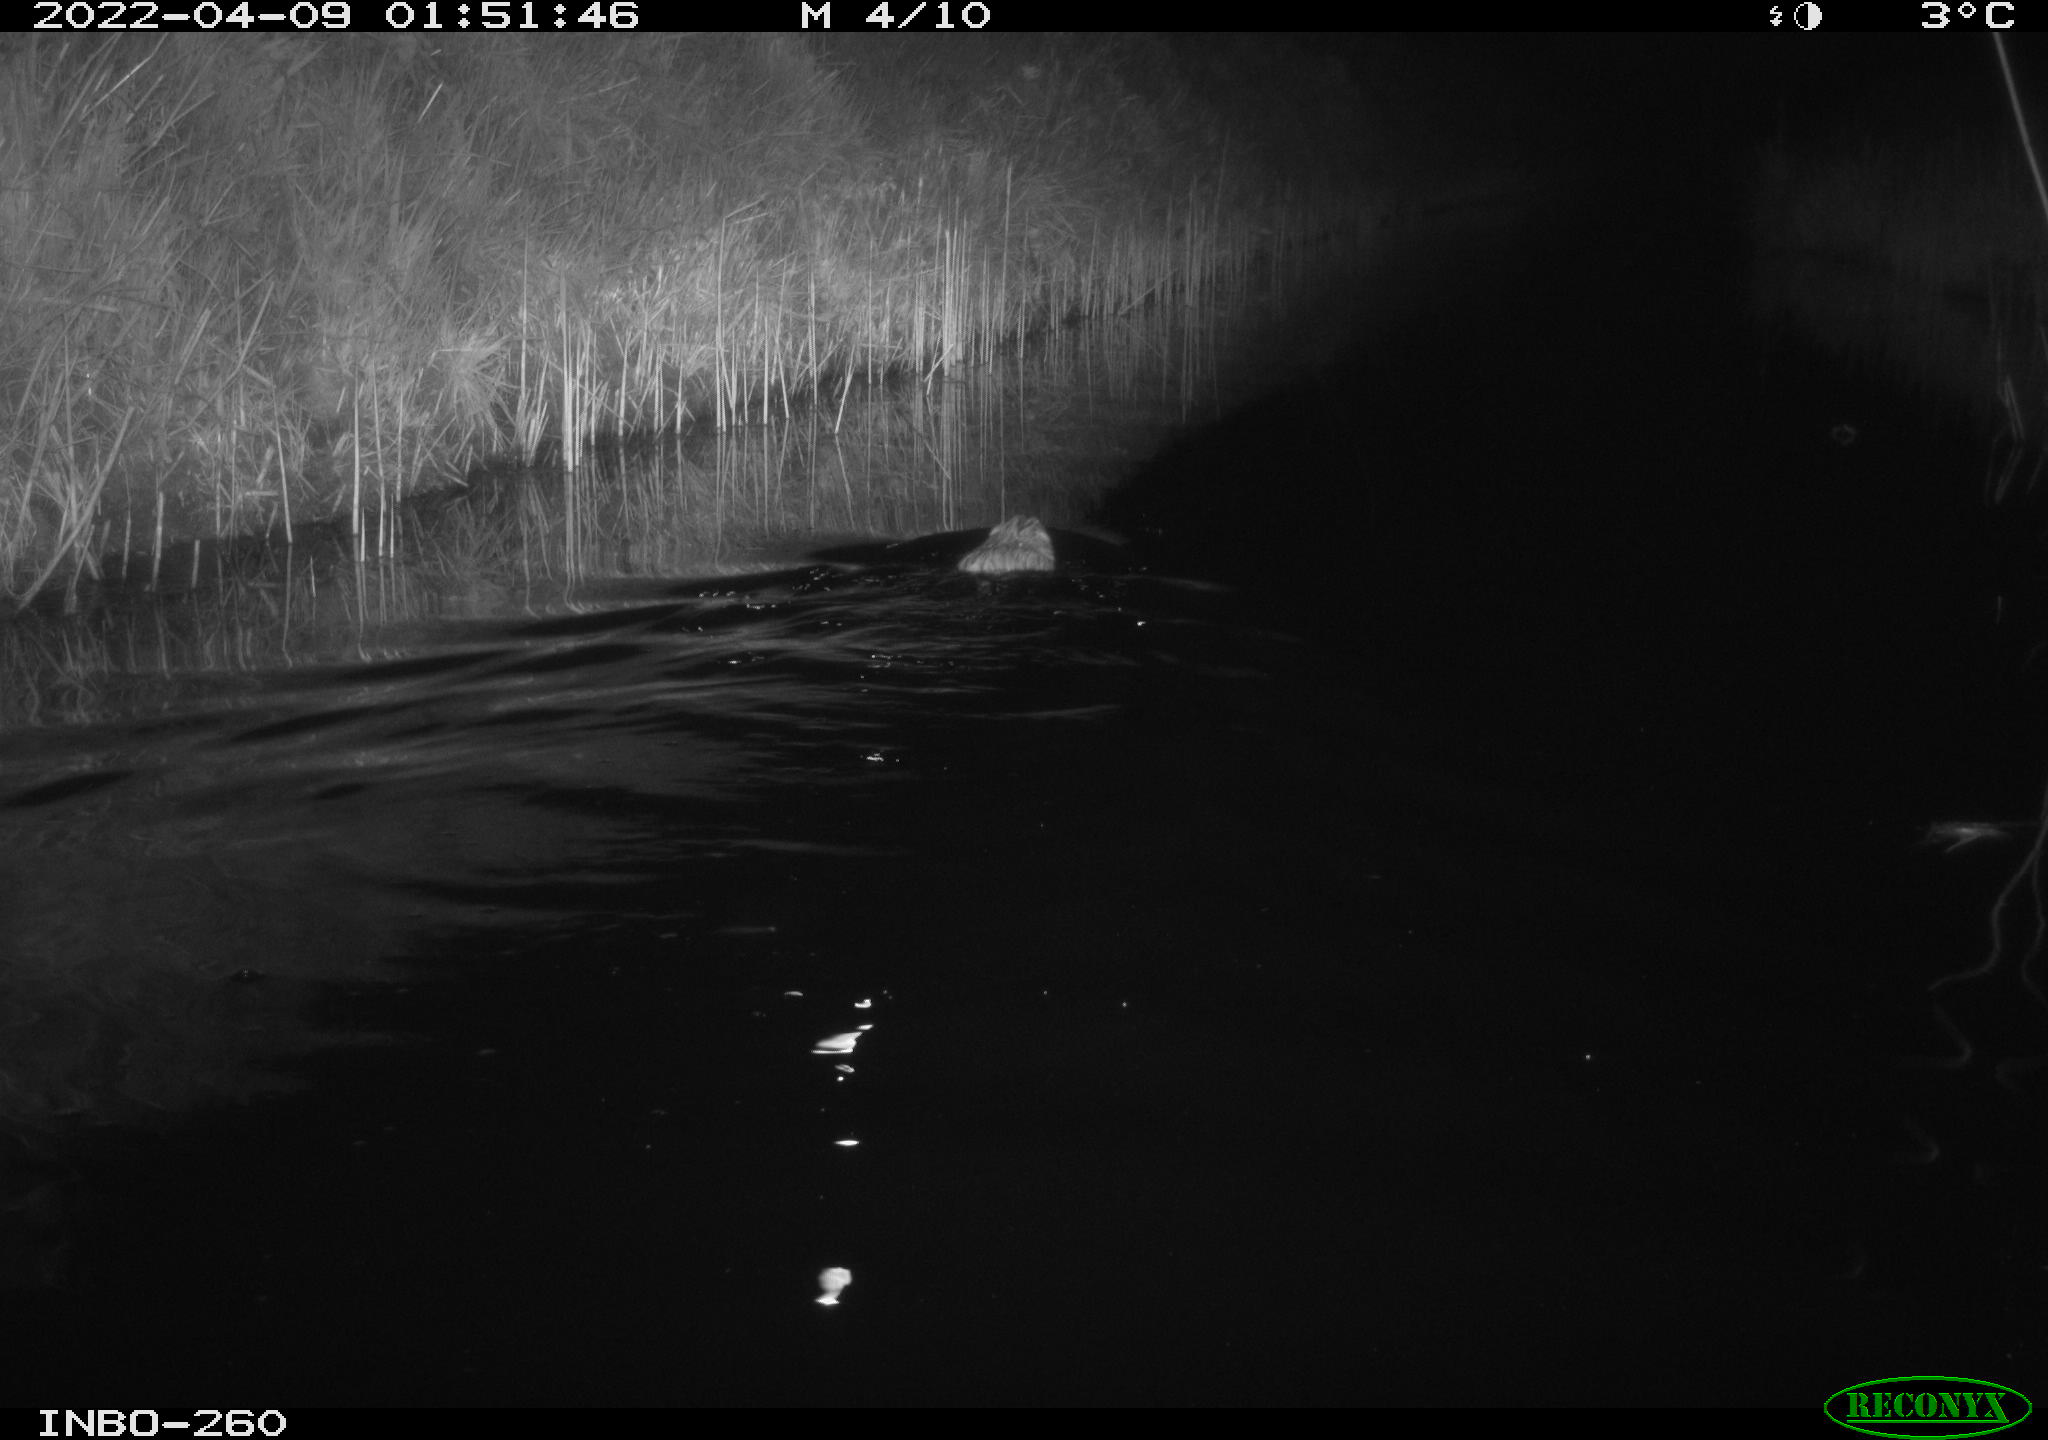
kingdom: Animalia
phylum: Chordata
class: Mammalia
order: Rodentia
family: Cricetidae
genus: Ondatra
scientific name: Ondatra zibethicus
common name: Muskrat
